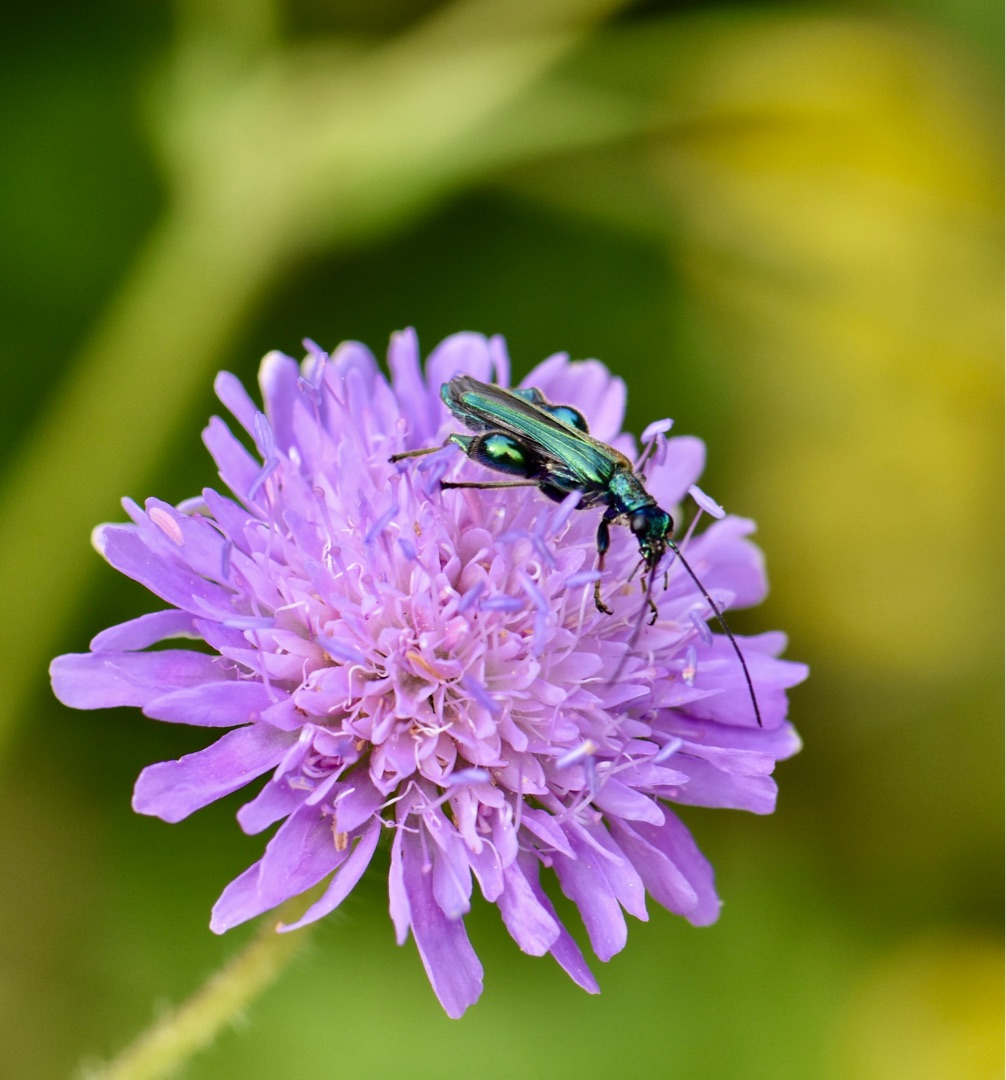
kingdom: Animalia
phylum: Arthropoda
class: Insecta
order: Coleoptera
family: Oedemeridae
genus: Oedemera
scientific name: Oedemera nobilis
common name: Tyklårssolbille
